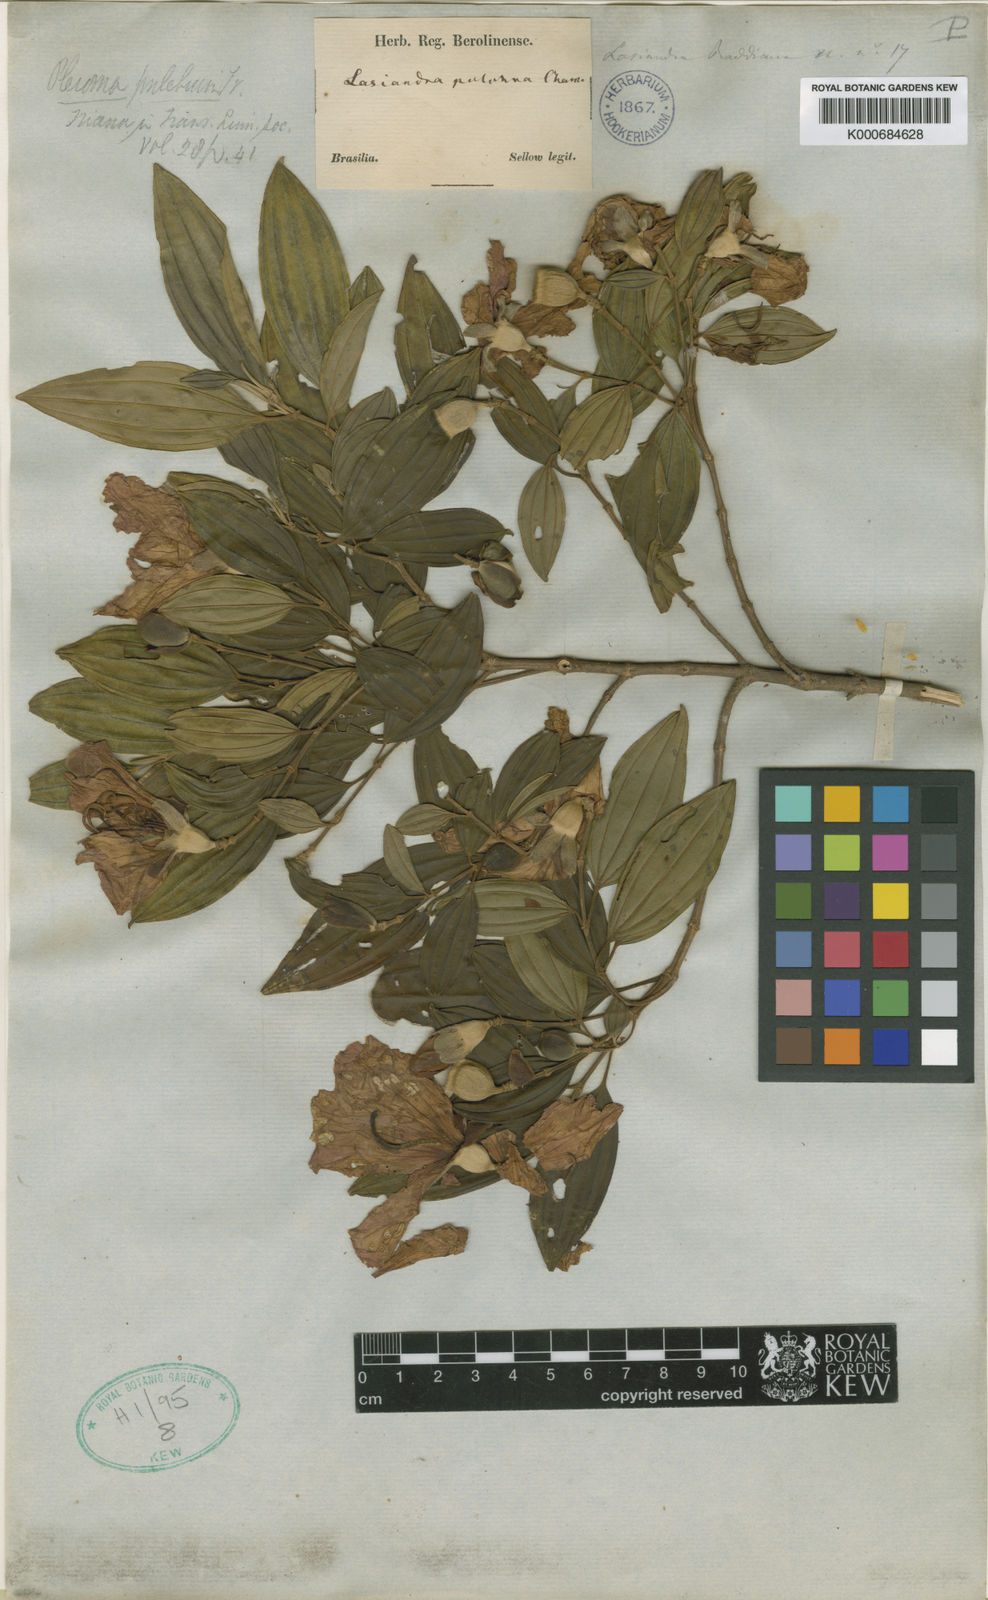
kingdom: Plantae
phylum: Tracheophyta
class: Magnoliopsida
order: Myrtales
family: Melastomataceae
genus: Pleroma
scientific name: Pleroma raddianum
